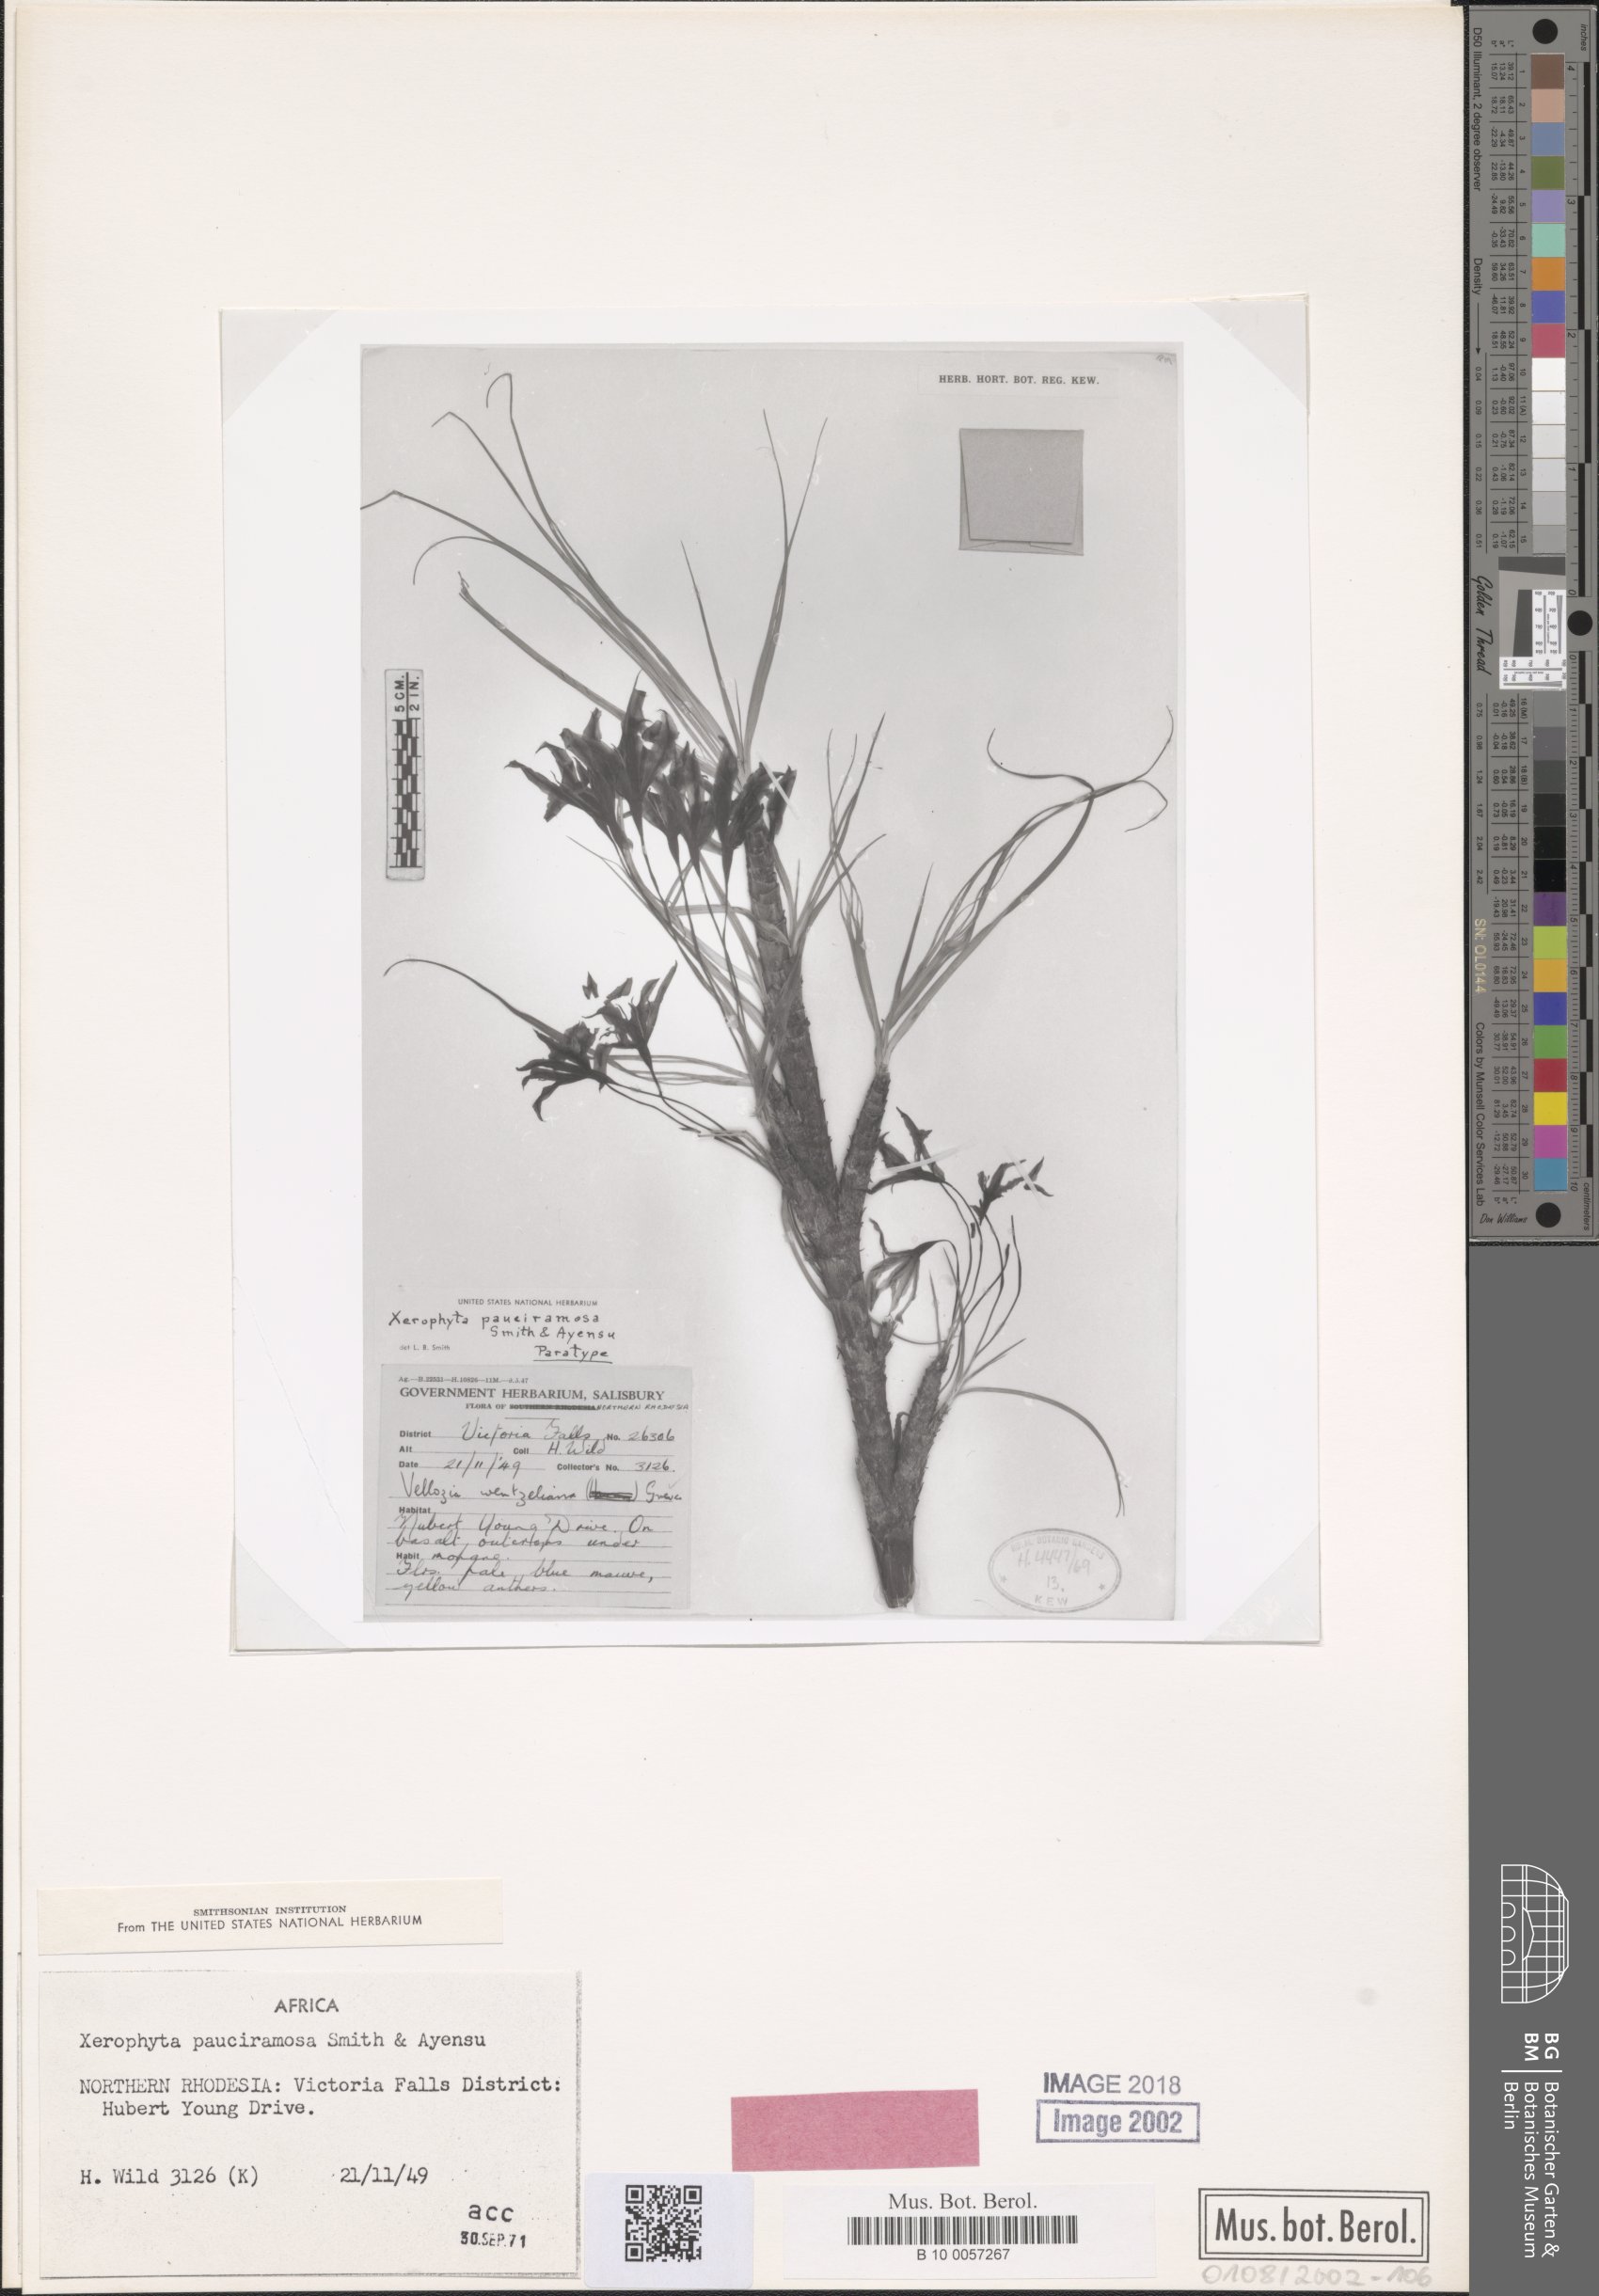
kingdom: Plantae
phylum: Tracheophyta
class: Liliopsida
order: Pandanales
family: Velloziaceae
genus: Xerophyta
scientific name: Xerophyta pauciramosa
